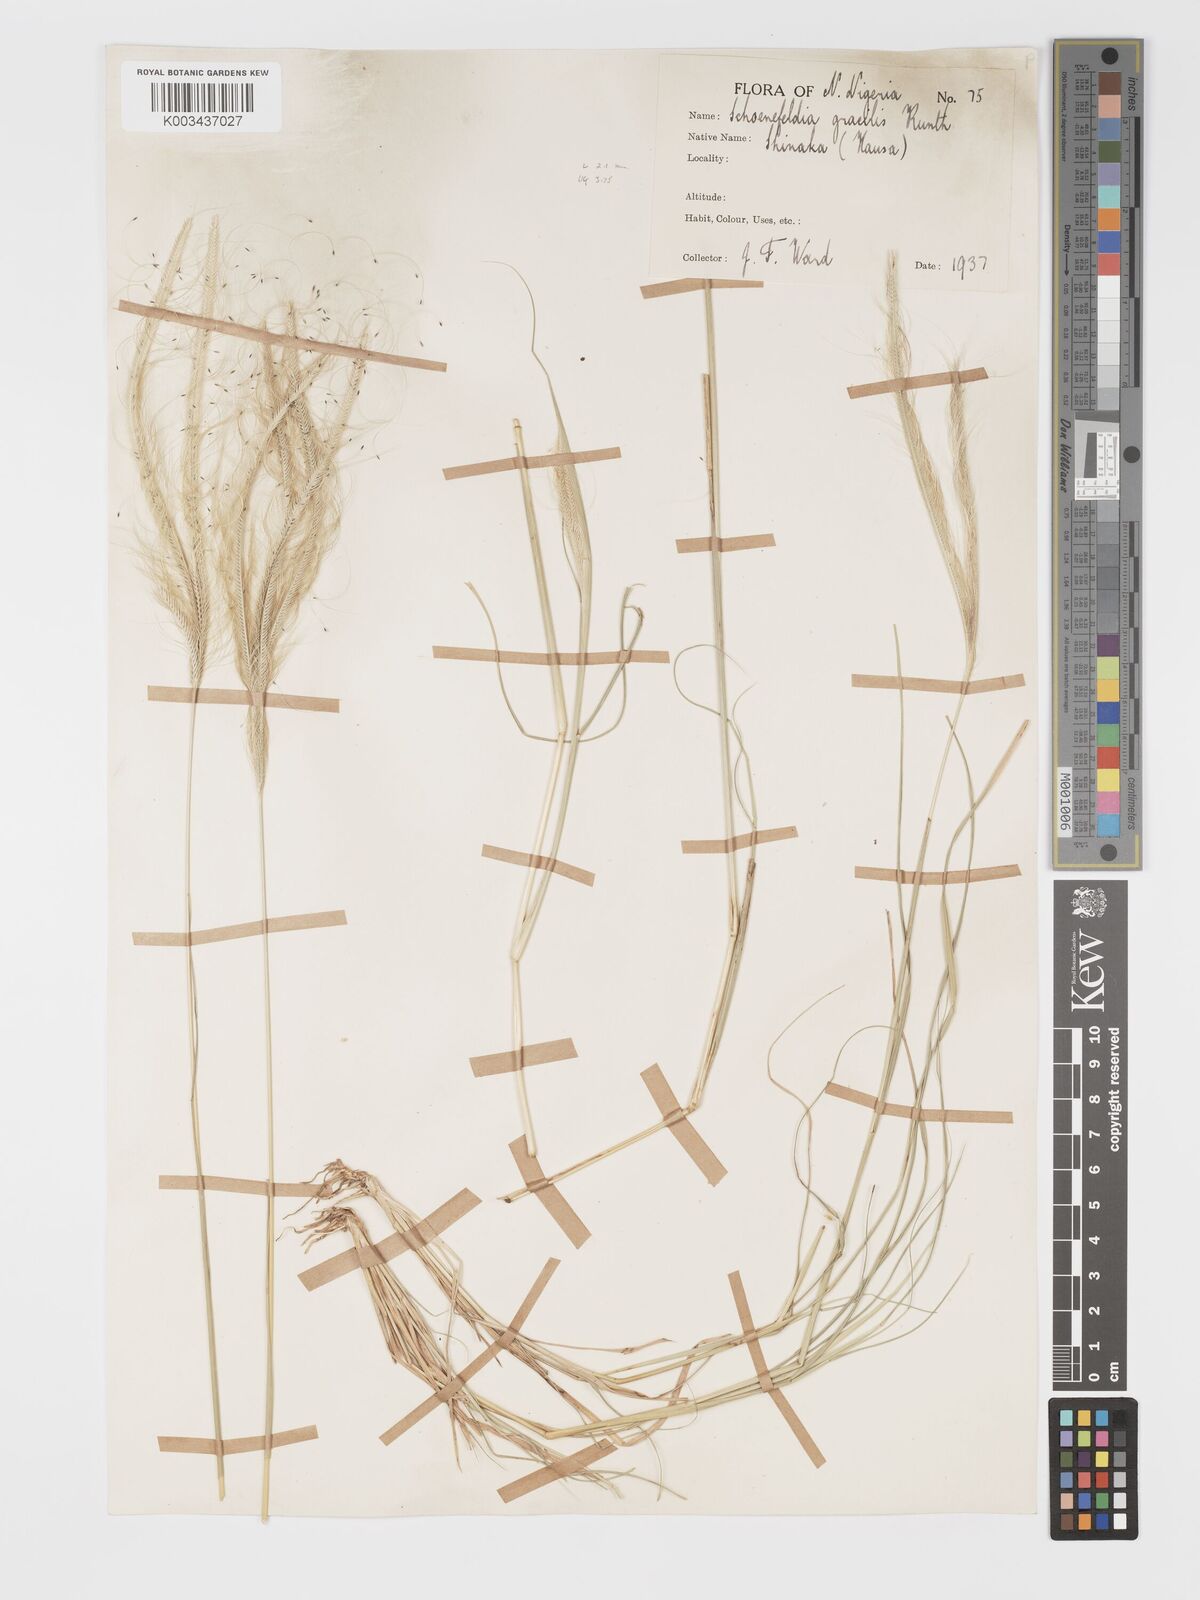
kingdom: Plantae
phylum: Tracheophyta
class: Liliopsida
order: Poales
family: Poaceae
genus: Schoenefeldia
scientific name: Schoenefeldia gracilis
